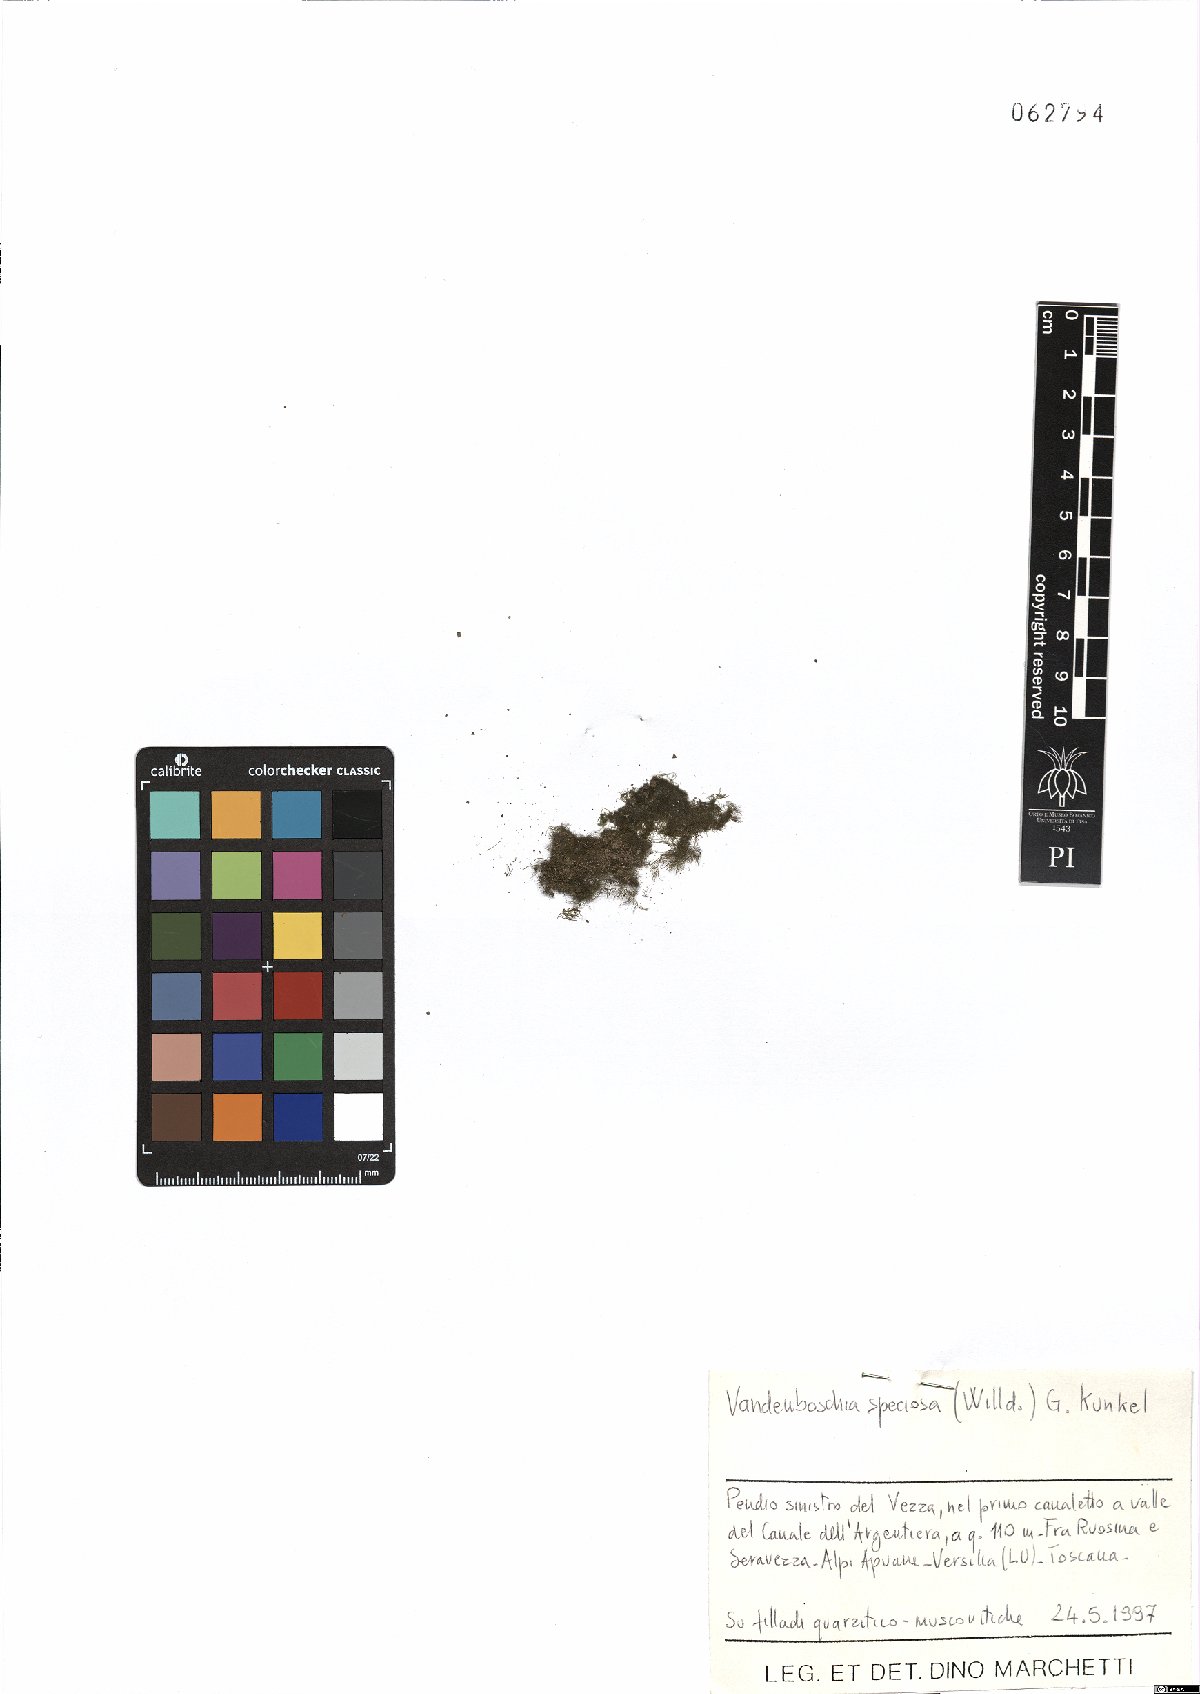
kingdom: Plantae
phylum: Tracheophyta
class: Polypodiopsida
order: Hymenophyllales
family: Hymenophyllaceae
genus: Vandenboschia
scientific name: Vandenboschia speciosa
